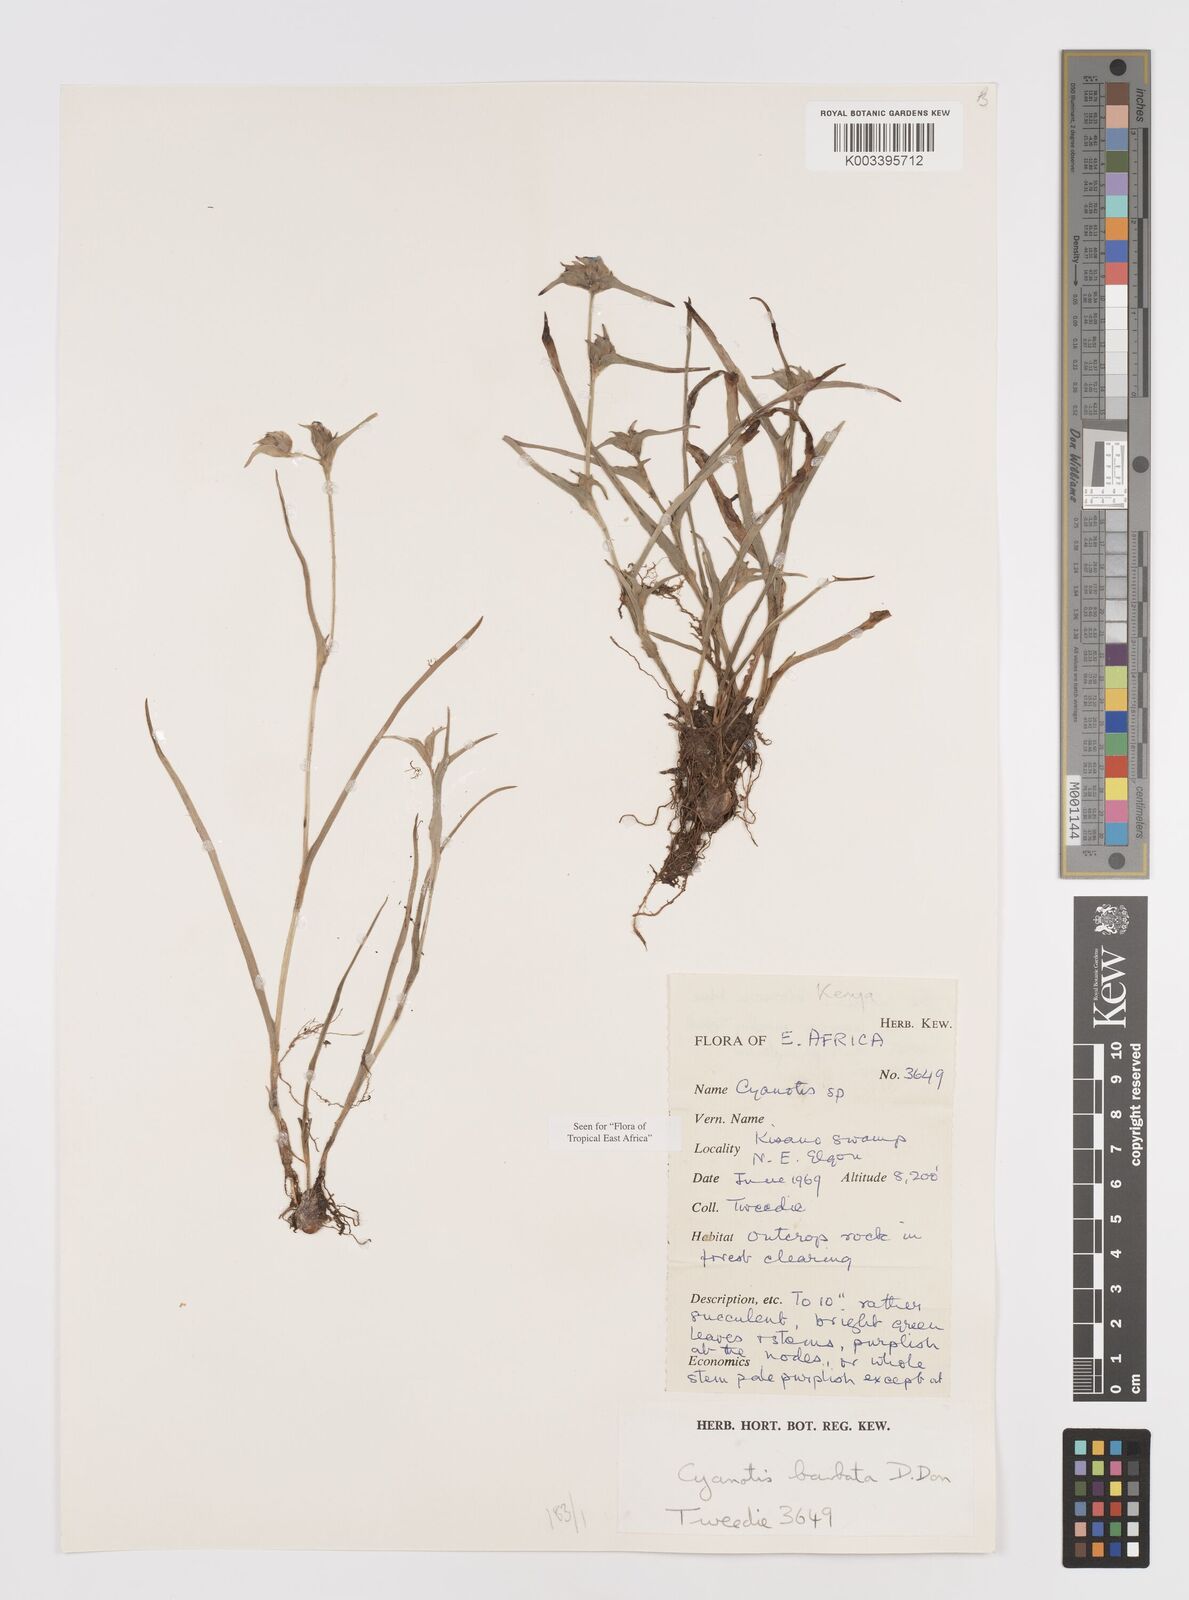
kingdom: Plantae
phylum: Tracheophyta
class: Liliopsida
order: Commelinales
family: Commelinaceae
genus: Cyanotis
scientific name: Cyanotis vaga
